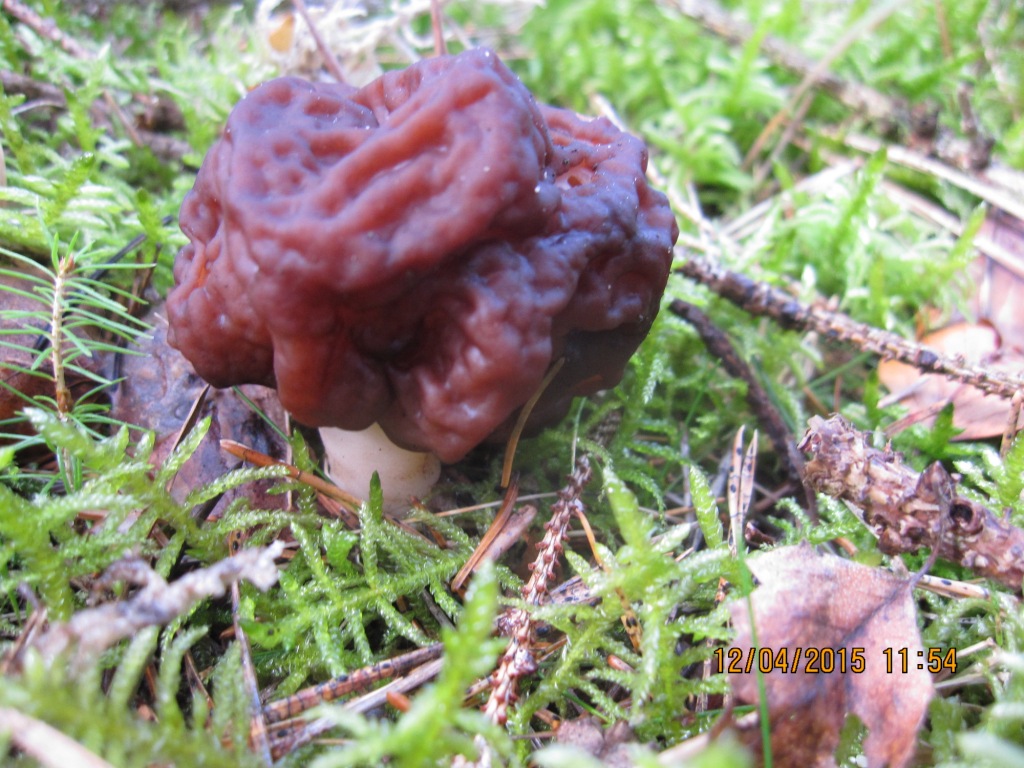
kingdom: Fungi
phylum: Ascomycota
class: Pezizomycetes
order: Pezizales
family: Discinaceae
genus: Gyromitra
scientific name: Gyromitra esculenta
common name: ægte stenmorkel
